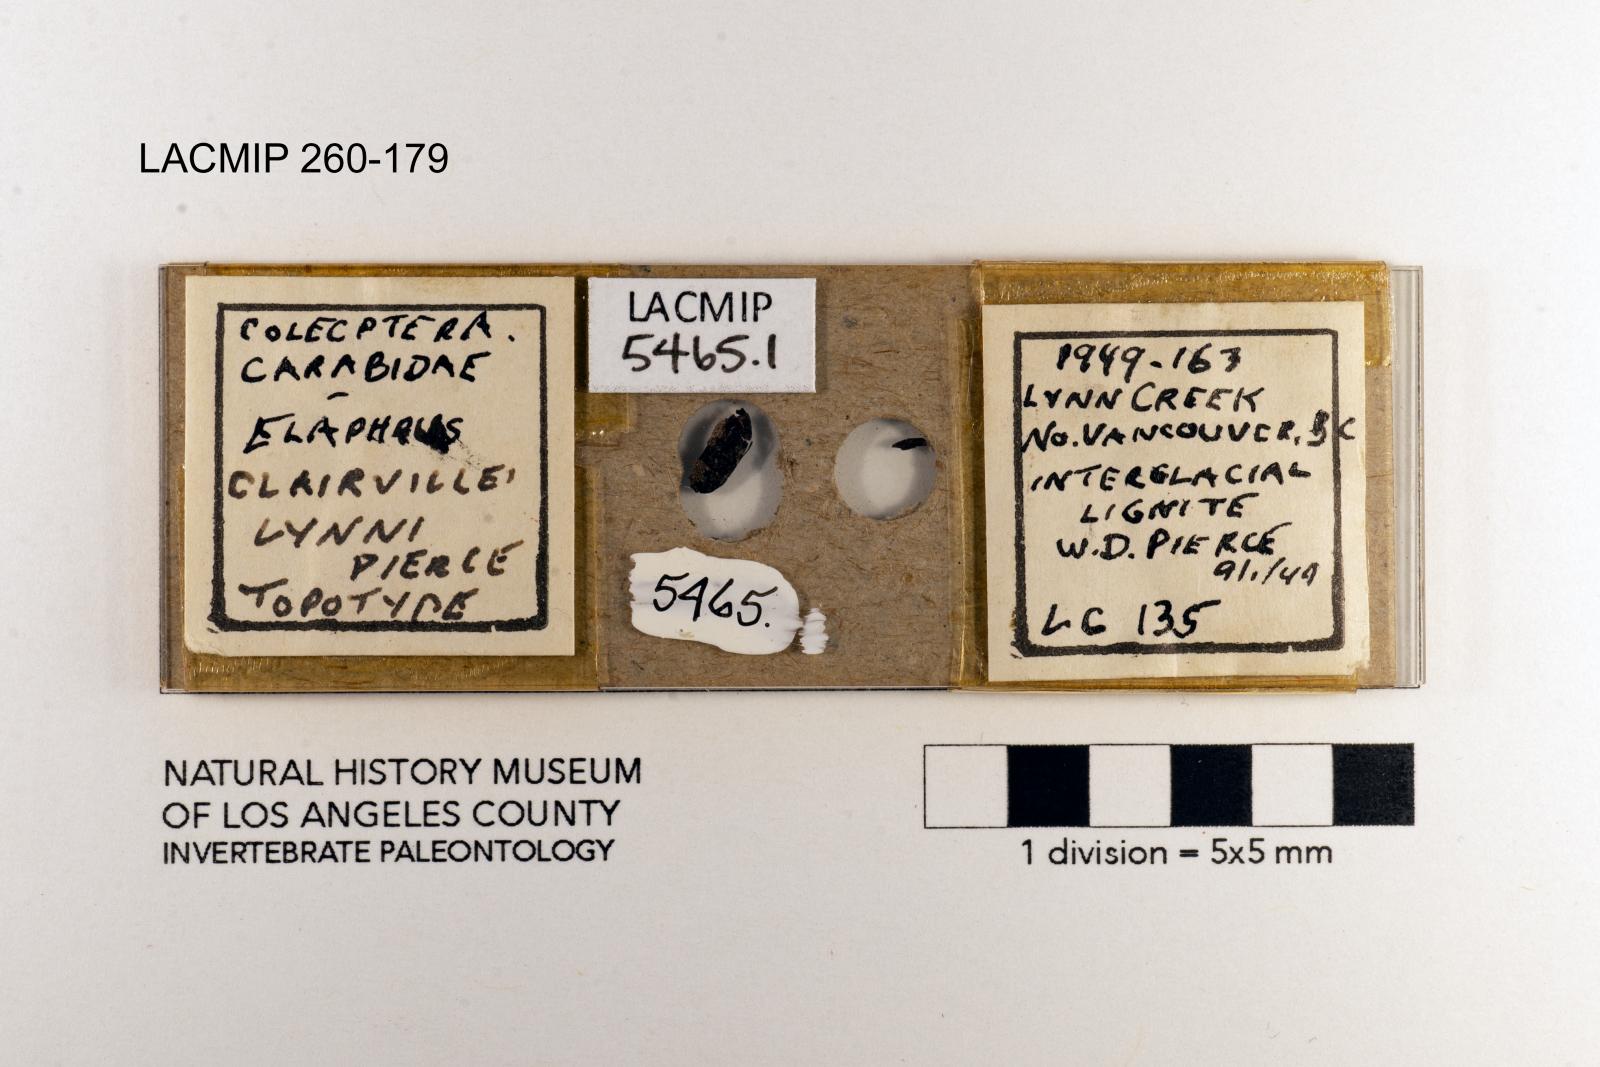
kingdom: Animalia
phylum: Arthropoda
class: Insecta
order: Coleoptera
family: Carabidae
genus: Elaphrus
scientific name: Elaphrus clairvillei
